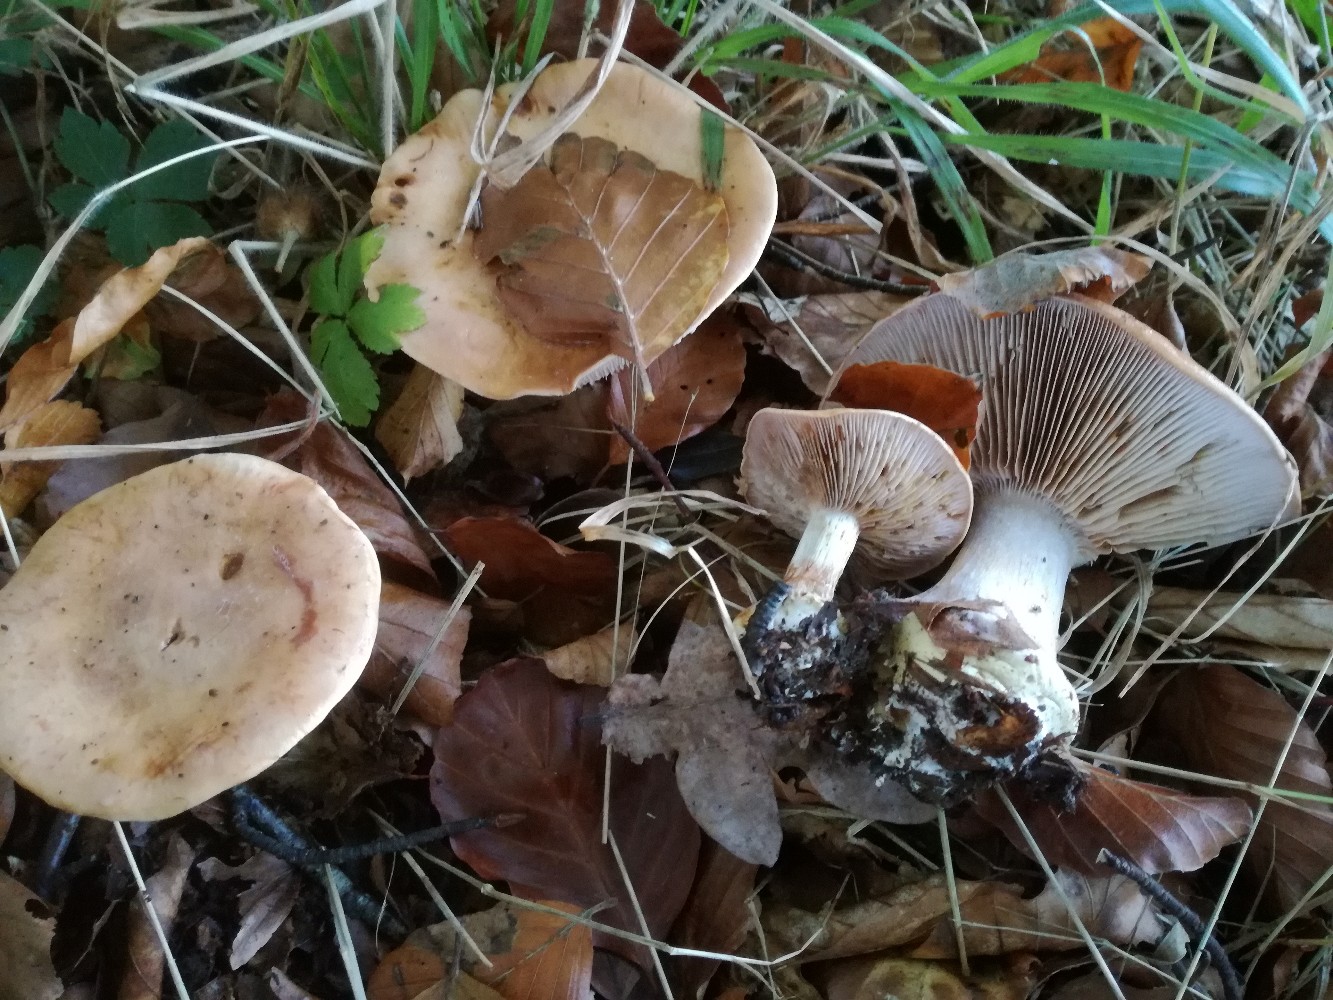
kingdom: Fungi
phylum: Basidiomycota
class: Agaricomycetes
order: Agaricales
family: Cortinariaceae
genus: Calonarius
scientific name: Calonarius arcuatorum
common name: violetflaget slørhat
